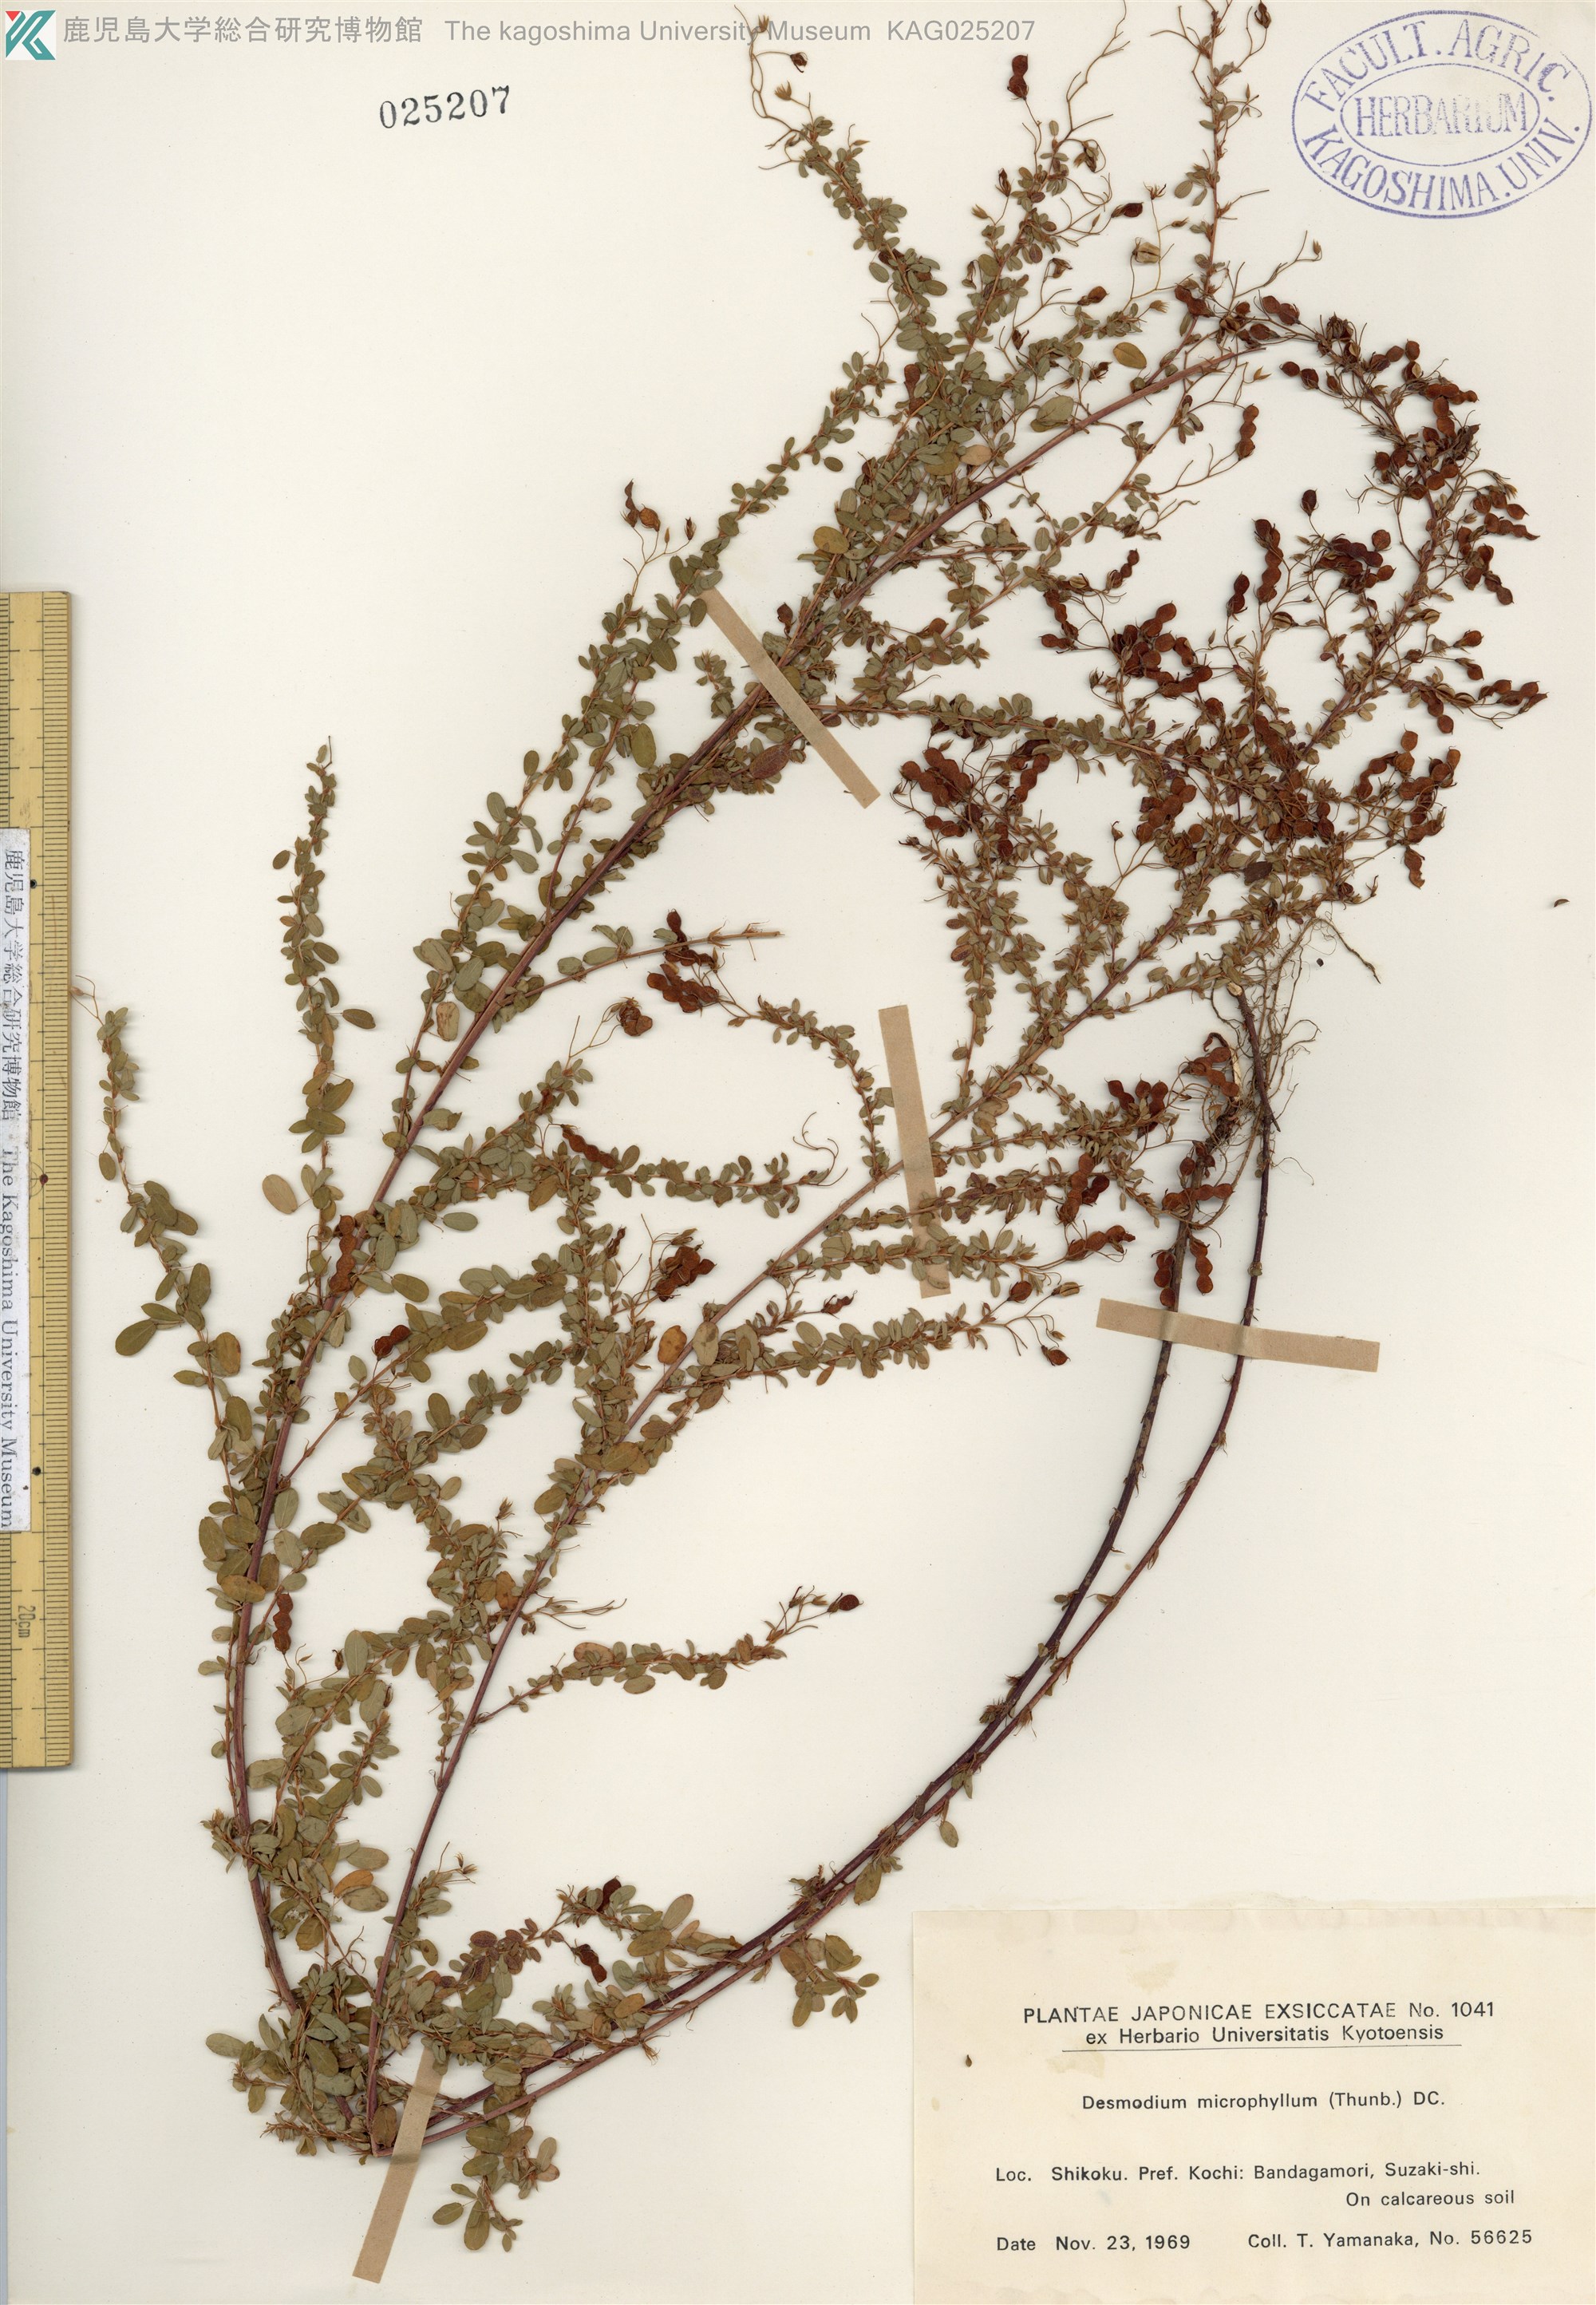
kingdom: Plantae
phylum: Tracheophyta
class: Magnoliopsida
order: Fabales
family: Fabaceae
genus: Leptodesmia
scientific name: Leptodesmia microphylla
